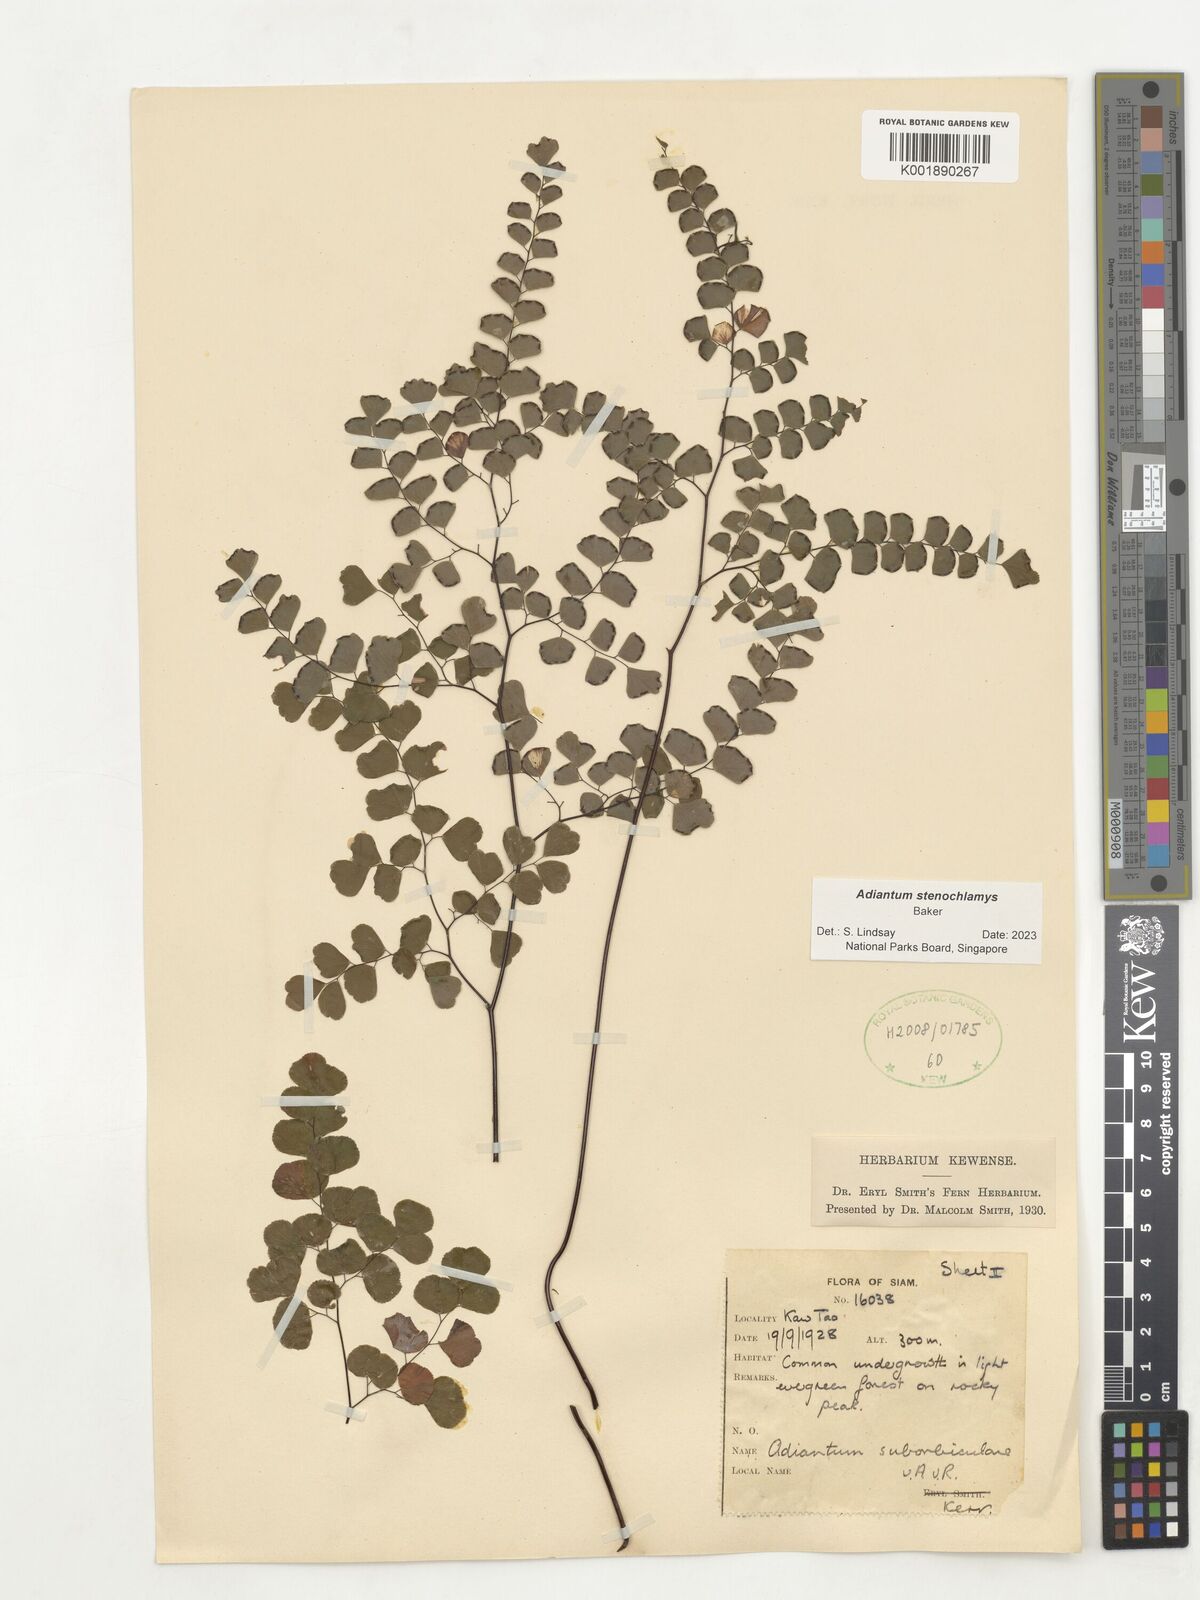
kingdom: Plantae
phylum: Tracheophyta
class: Polypodiopsida
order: Polypodiales
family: Pteridaceae
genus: Adiantum
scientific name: Adiantum stenochlamys
